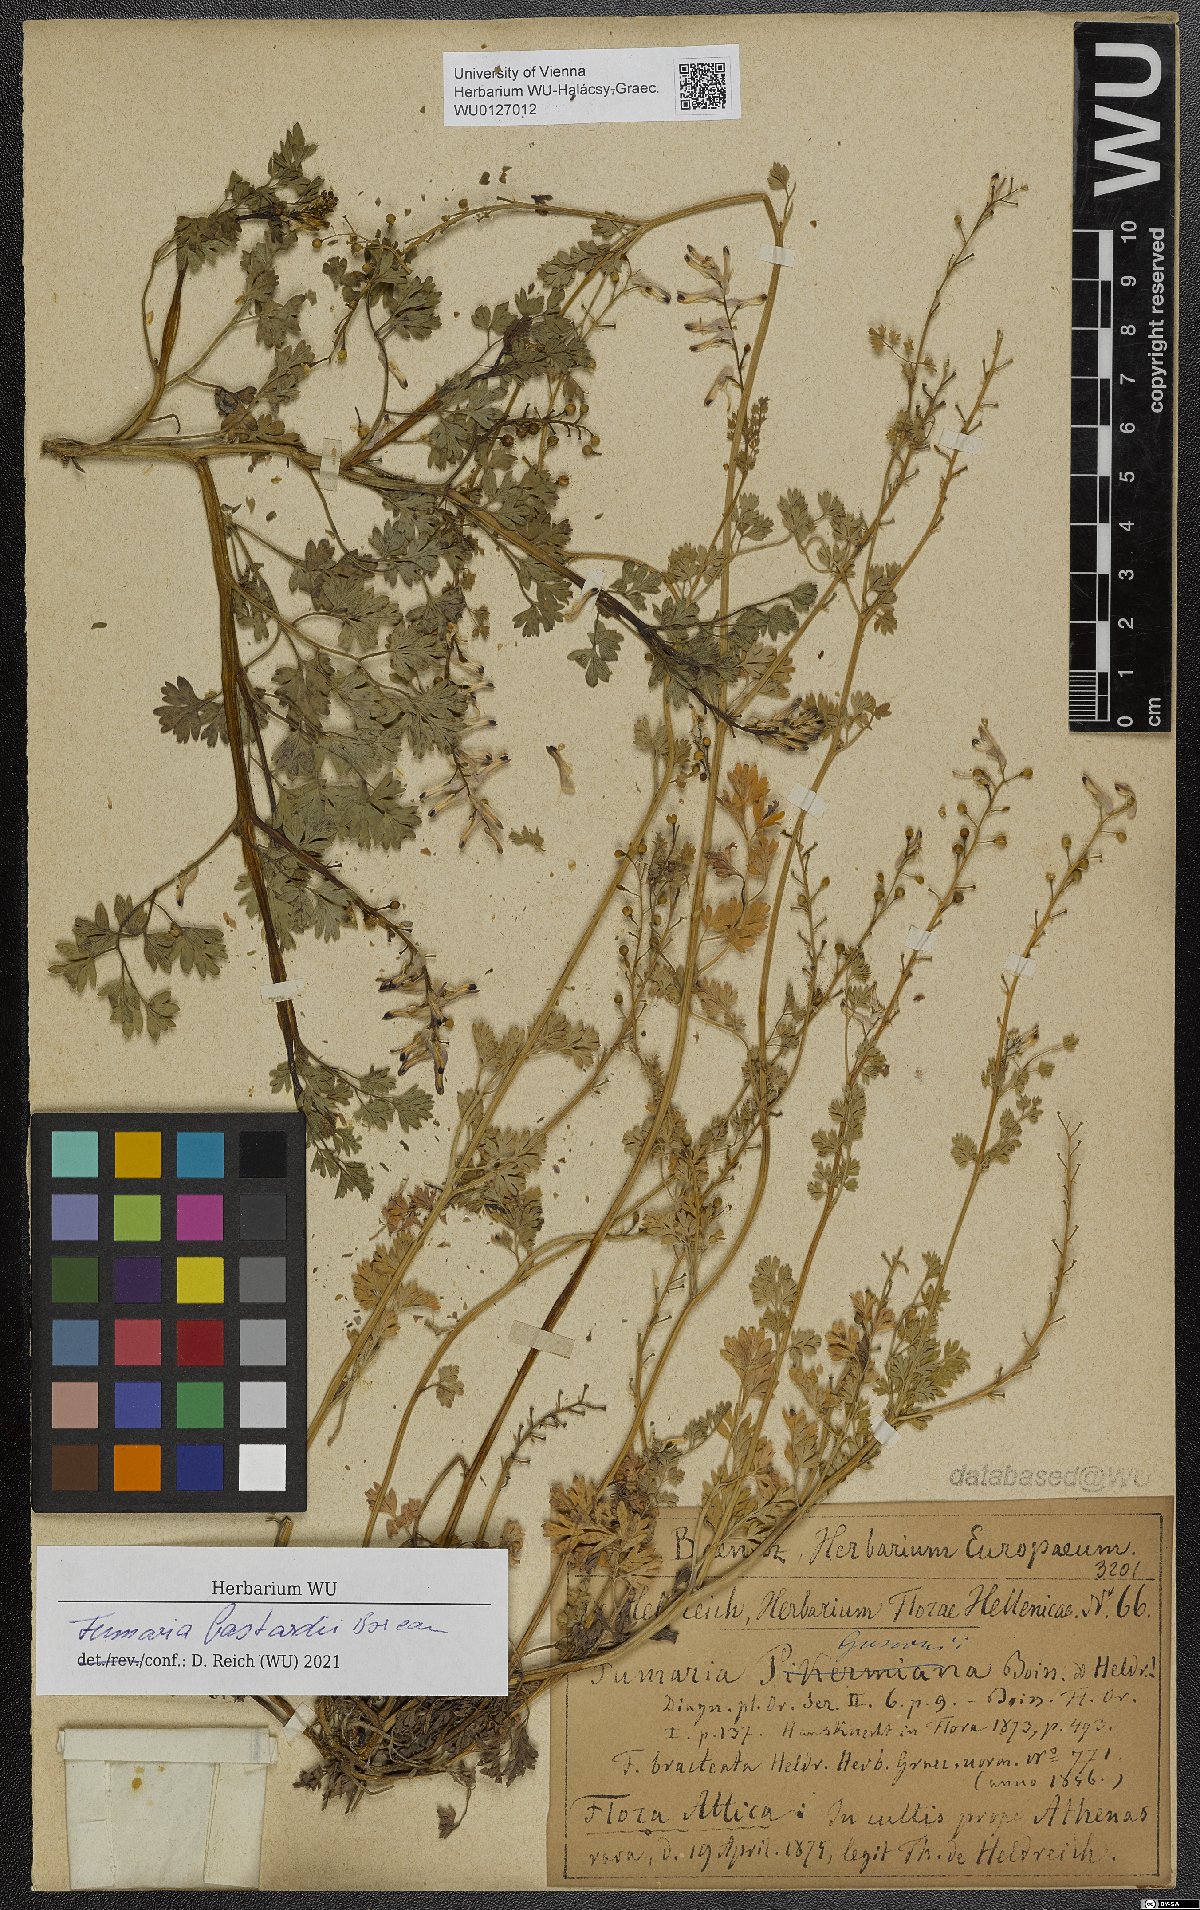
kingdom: Plantae
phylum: Tracheophyta
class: Magnoliopsida
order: Ranunculales
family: Papaveraceae
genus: Fumaria
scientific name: Fumaria bastardii
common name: Tall ramping-fumitory
